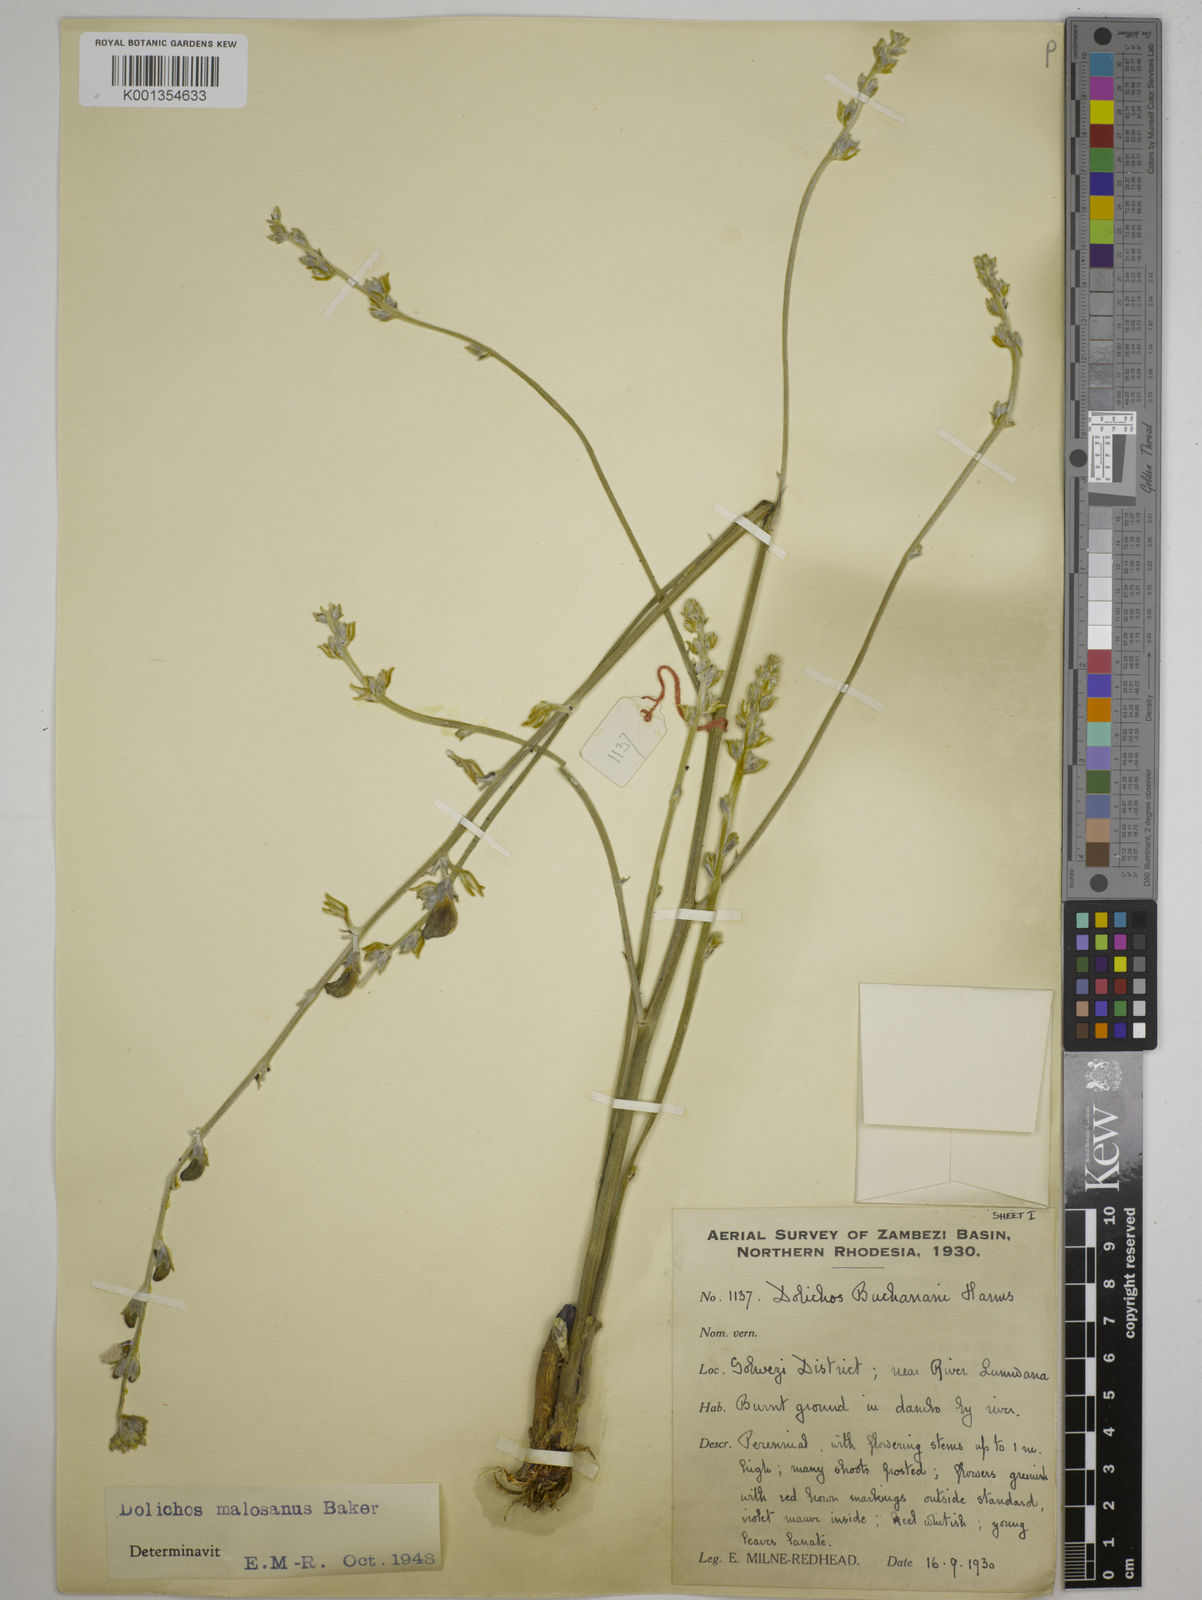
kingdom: Plantae
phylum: Tracheophyta
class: Magnoliopsida
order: Fabales
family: Fabaceae
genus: Dolichos
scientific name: Dolichos kilimandscharicus
